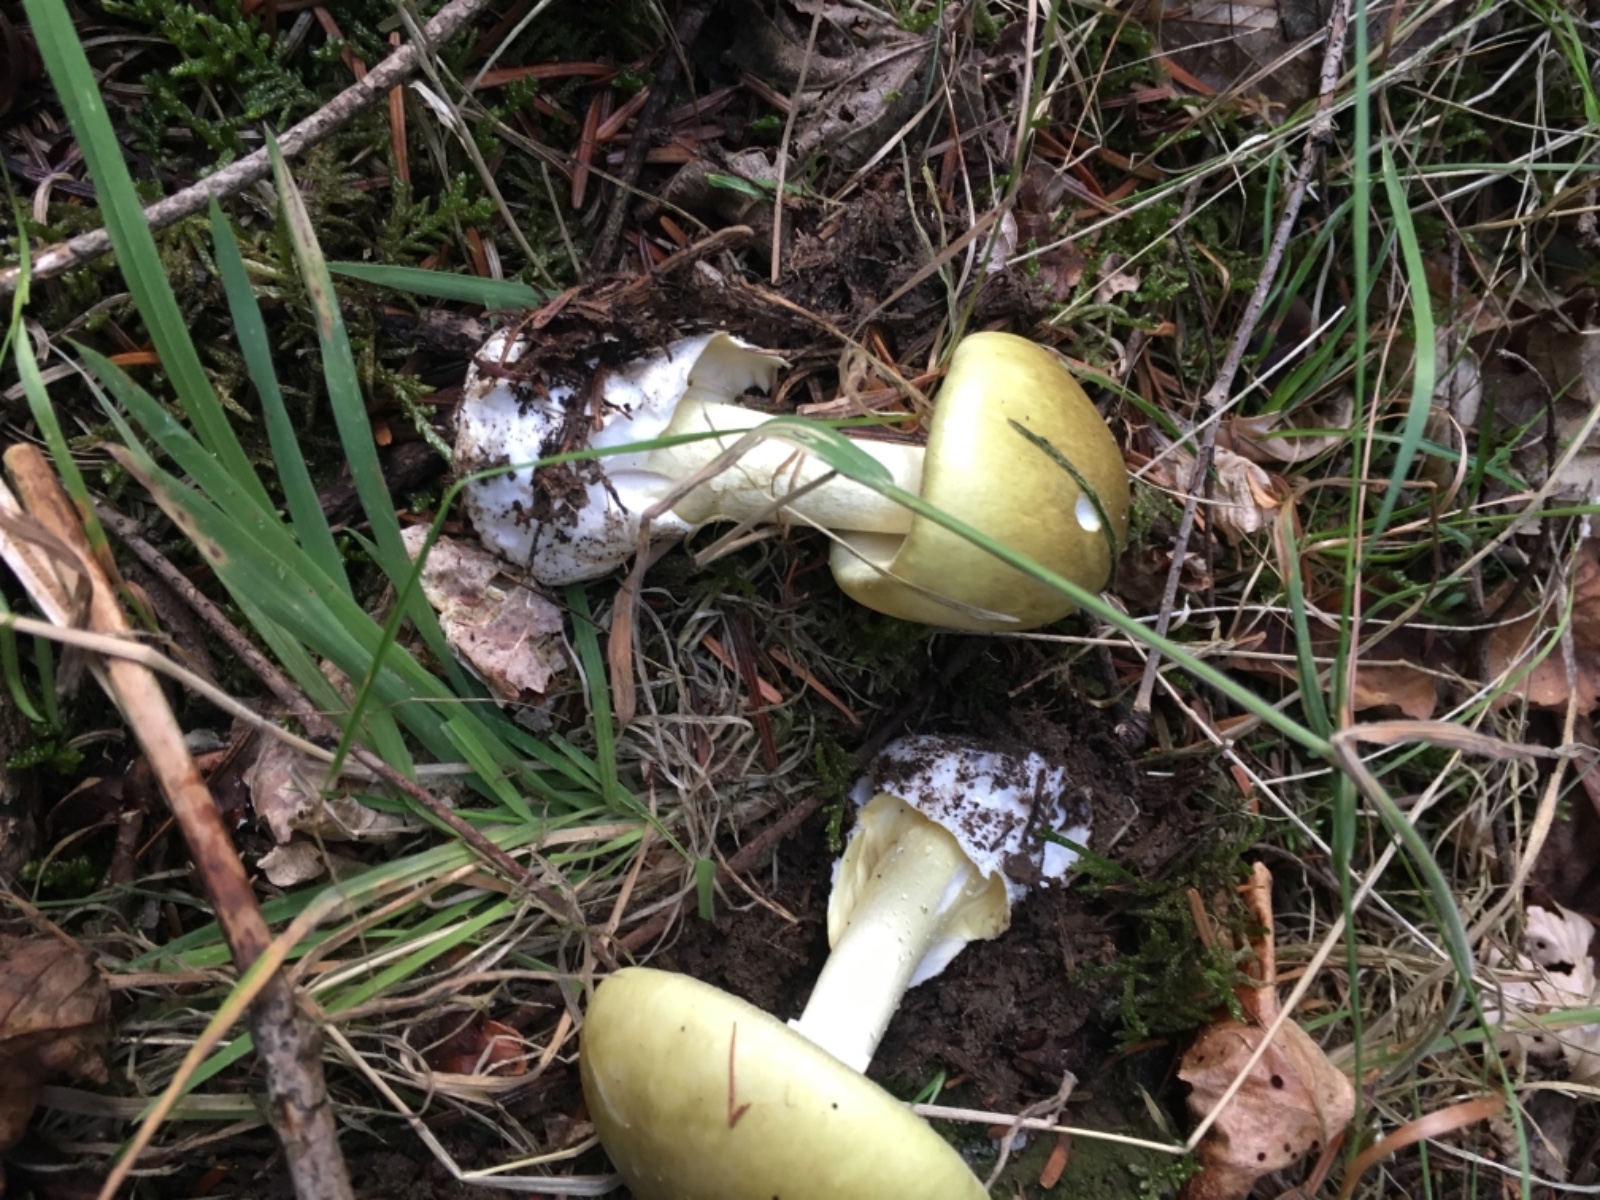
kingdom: Fungi
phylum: Basidiomycota
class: Agaricomycetes
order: Agaricales
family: Amanitaceae
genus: Amanita
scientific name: Amanita phalloides
